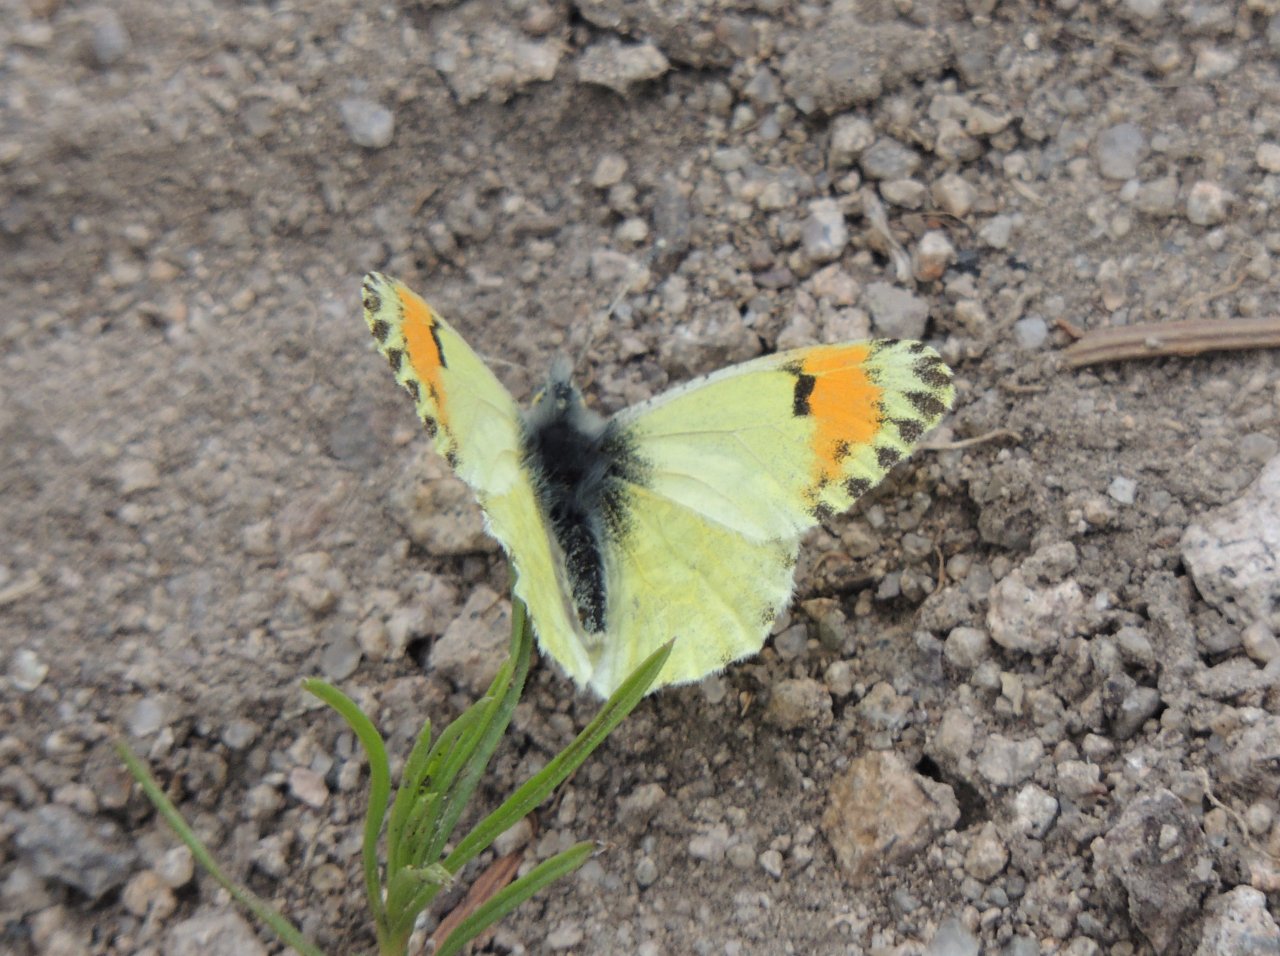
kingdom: Animalia
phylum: Arthropoda
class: Insecta
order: Lepidoptera
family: Pieridae
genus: Anthocharis
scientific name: Anthocharis sara
